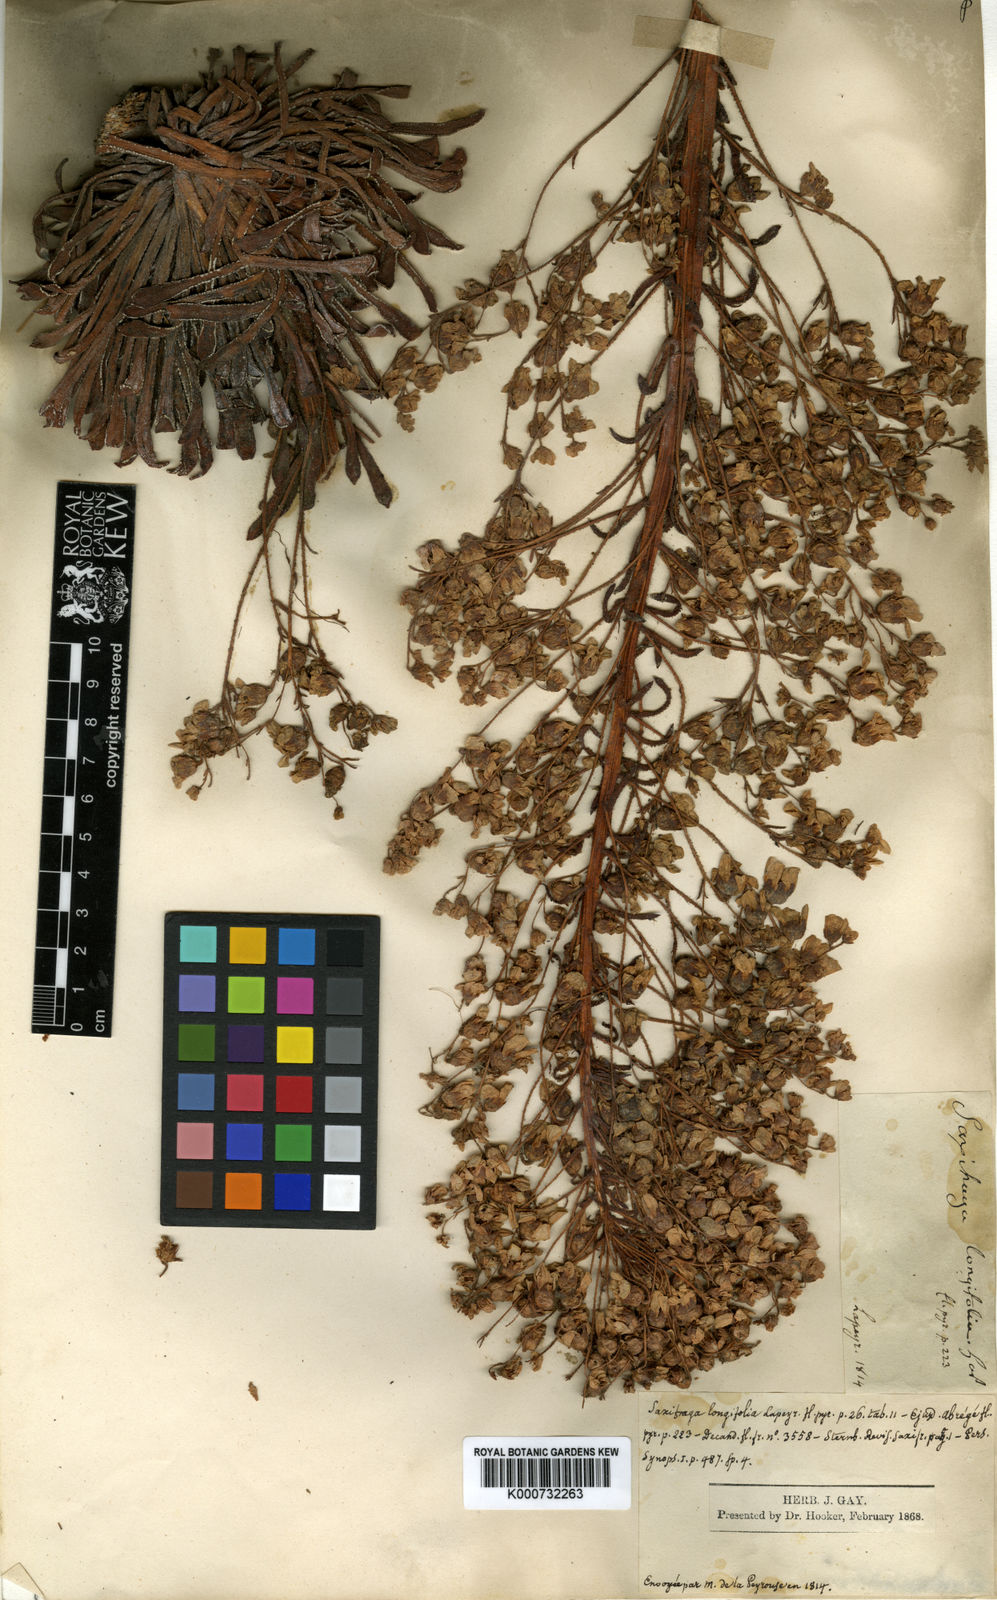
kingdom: Plantae
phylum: Tracheophyta
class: Magnoliopsida
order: Saxifragales
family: Saxifragaceae
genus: Saxifraga
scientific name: Saxifraga longifolia
